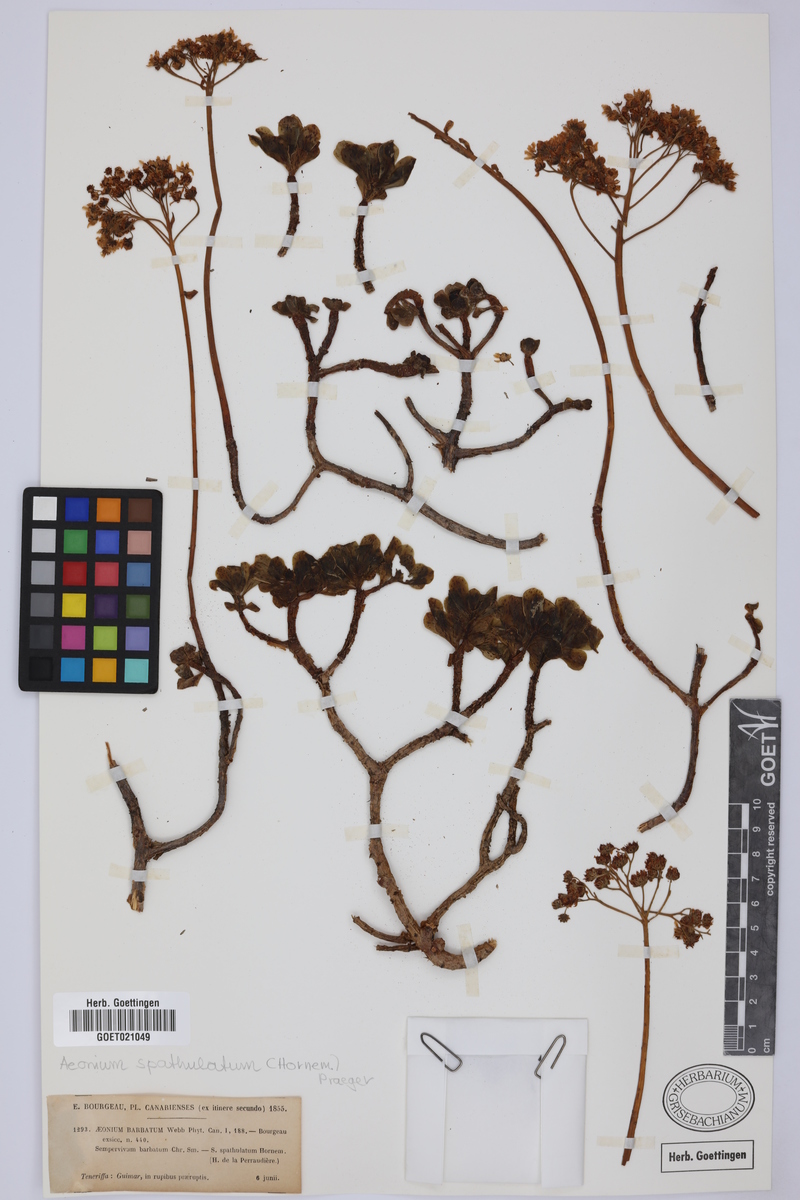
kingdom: Plantae
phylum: Tracheophyta
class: Magnoliopsida
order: Saxifragales
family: Crassulaceae
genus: Aeonium
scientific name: Aeonium spathulatum
